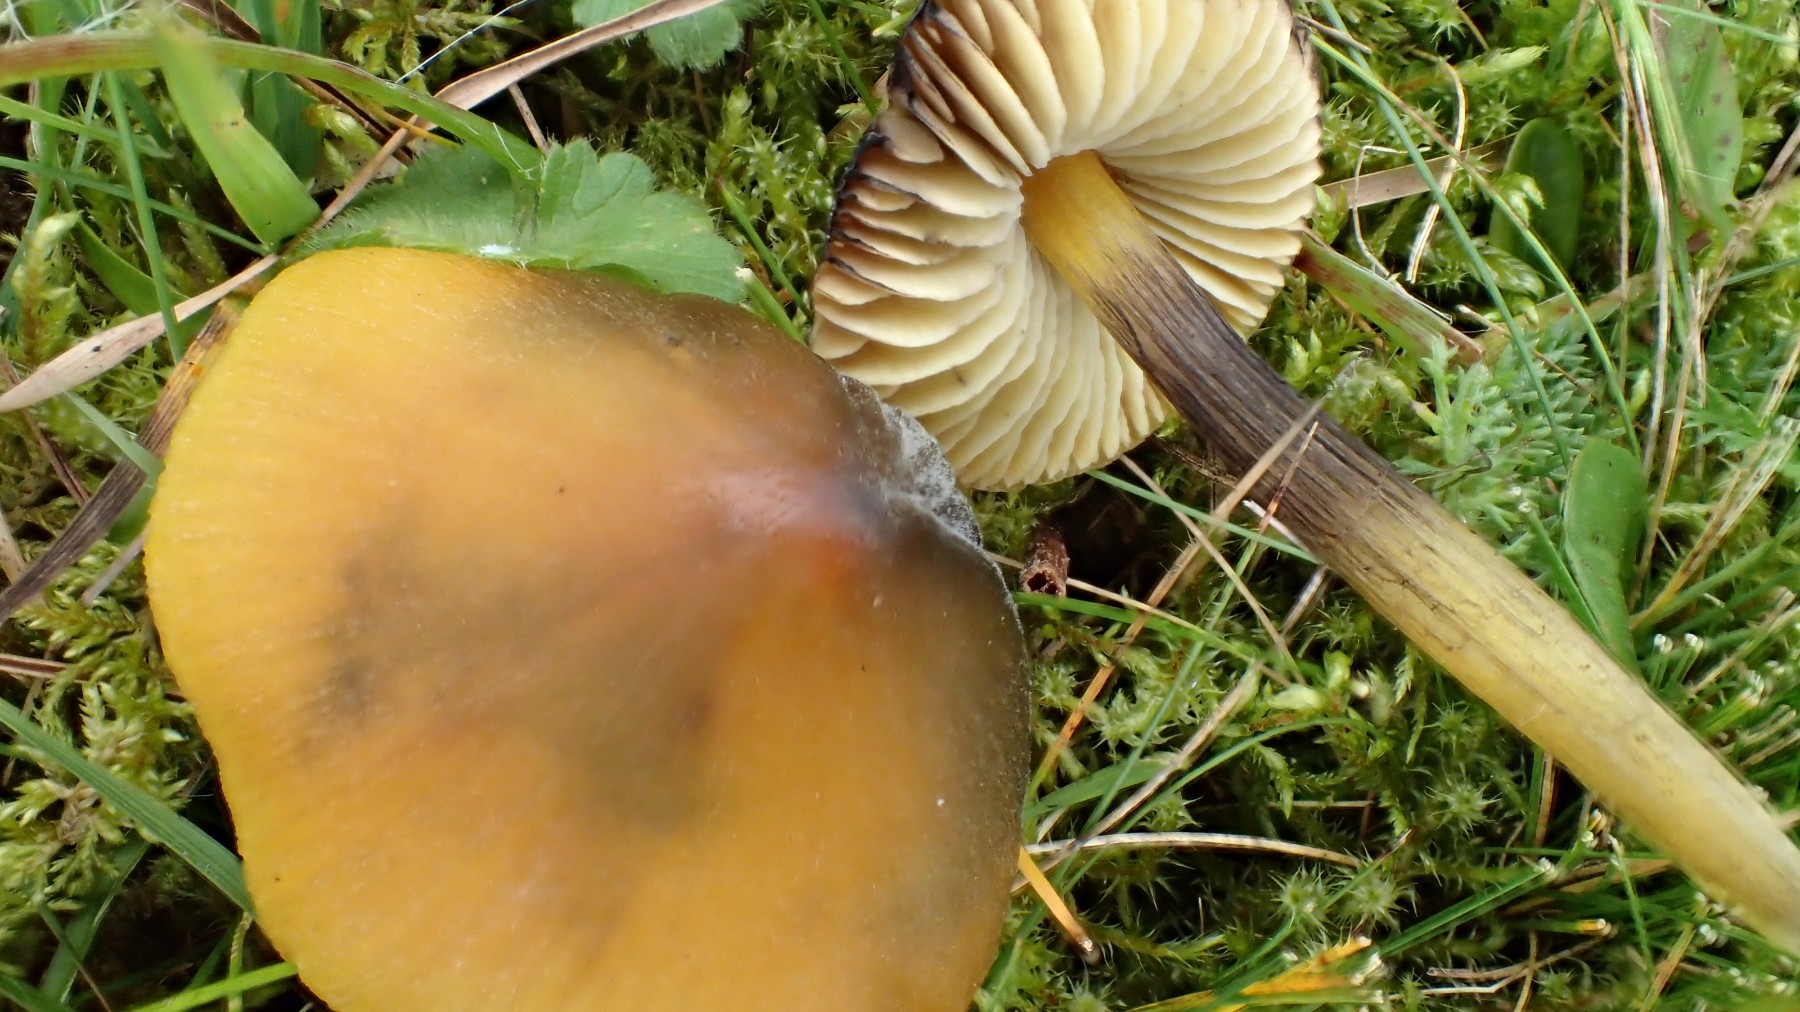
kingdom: Fungi
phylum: Basidiomycota
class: Agaricomycetes
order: Agaricales
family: Hygrophoraceae
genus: Hygrocybe
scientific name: Hygrocybe conica
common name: kegle-vokshat
